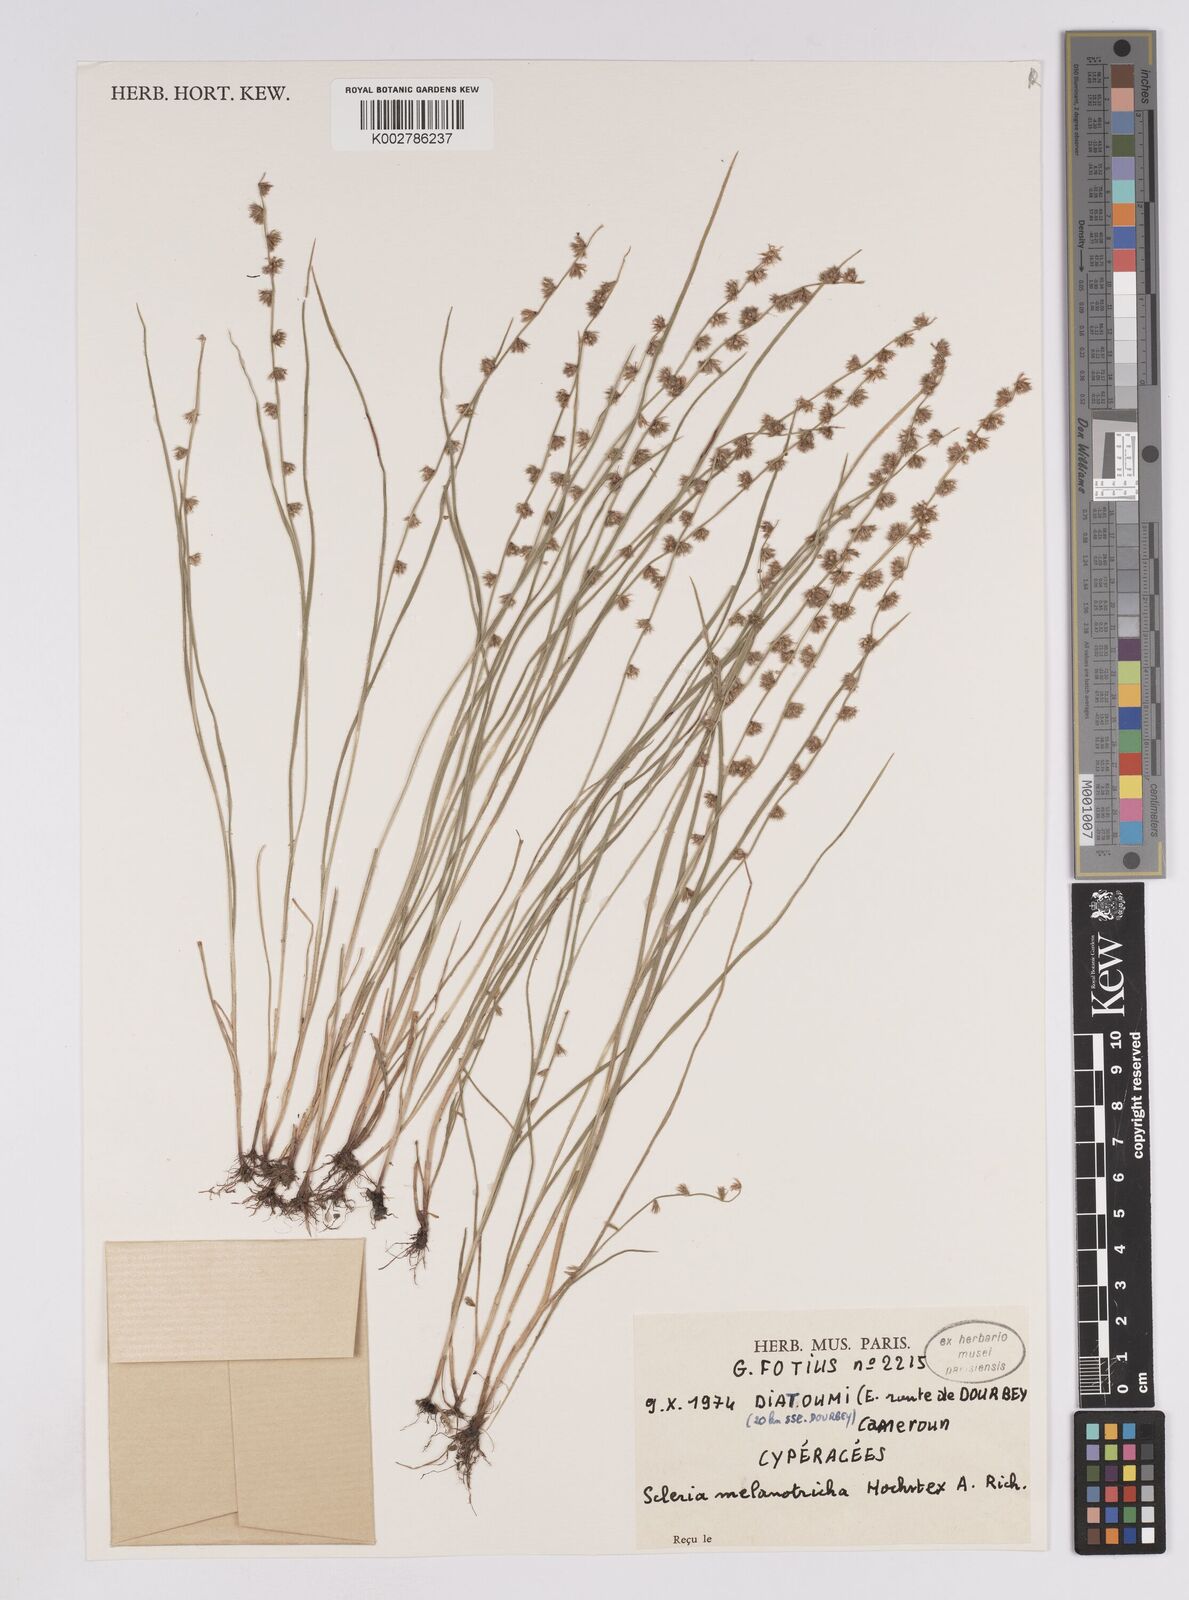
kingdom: Plantae
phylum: Tracheophyta
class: Liliopsida
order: Poales
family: Cyperaceae
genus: Scleria
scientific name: Scleria melanotricha
